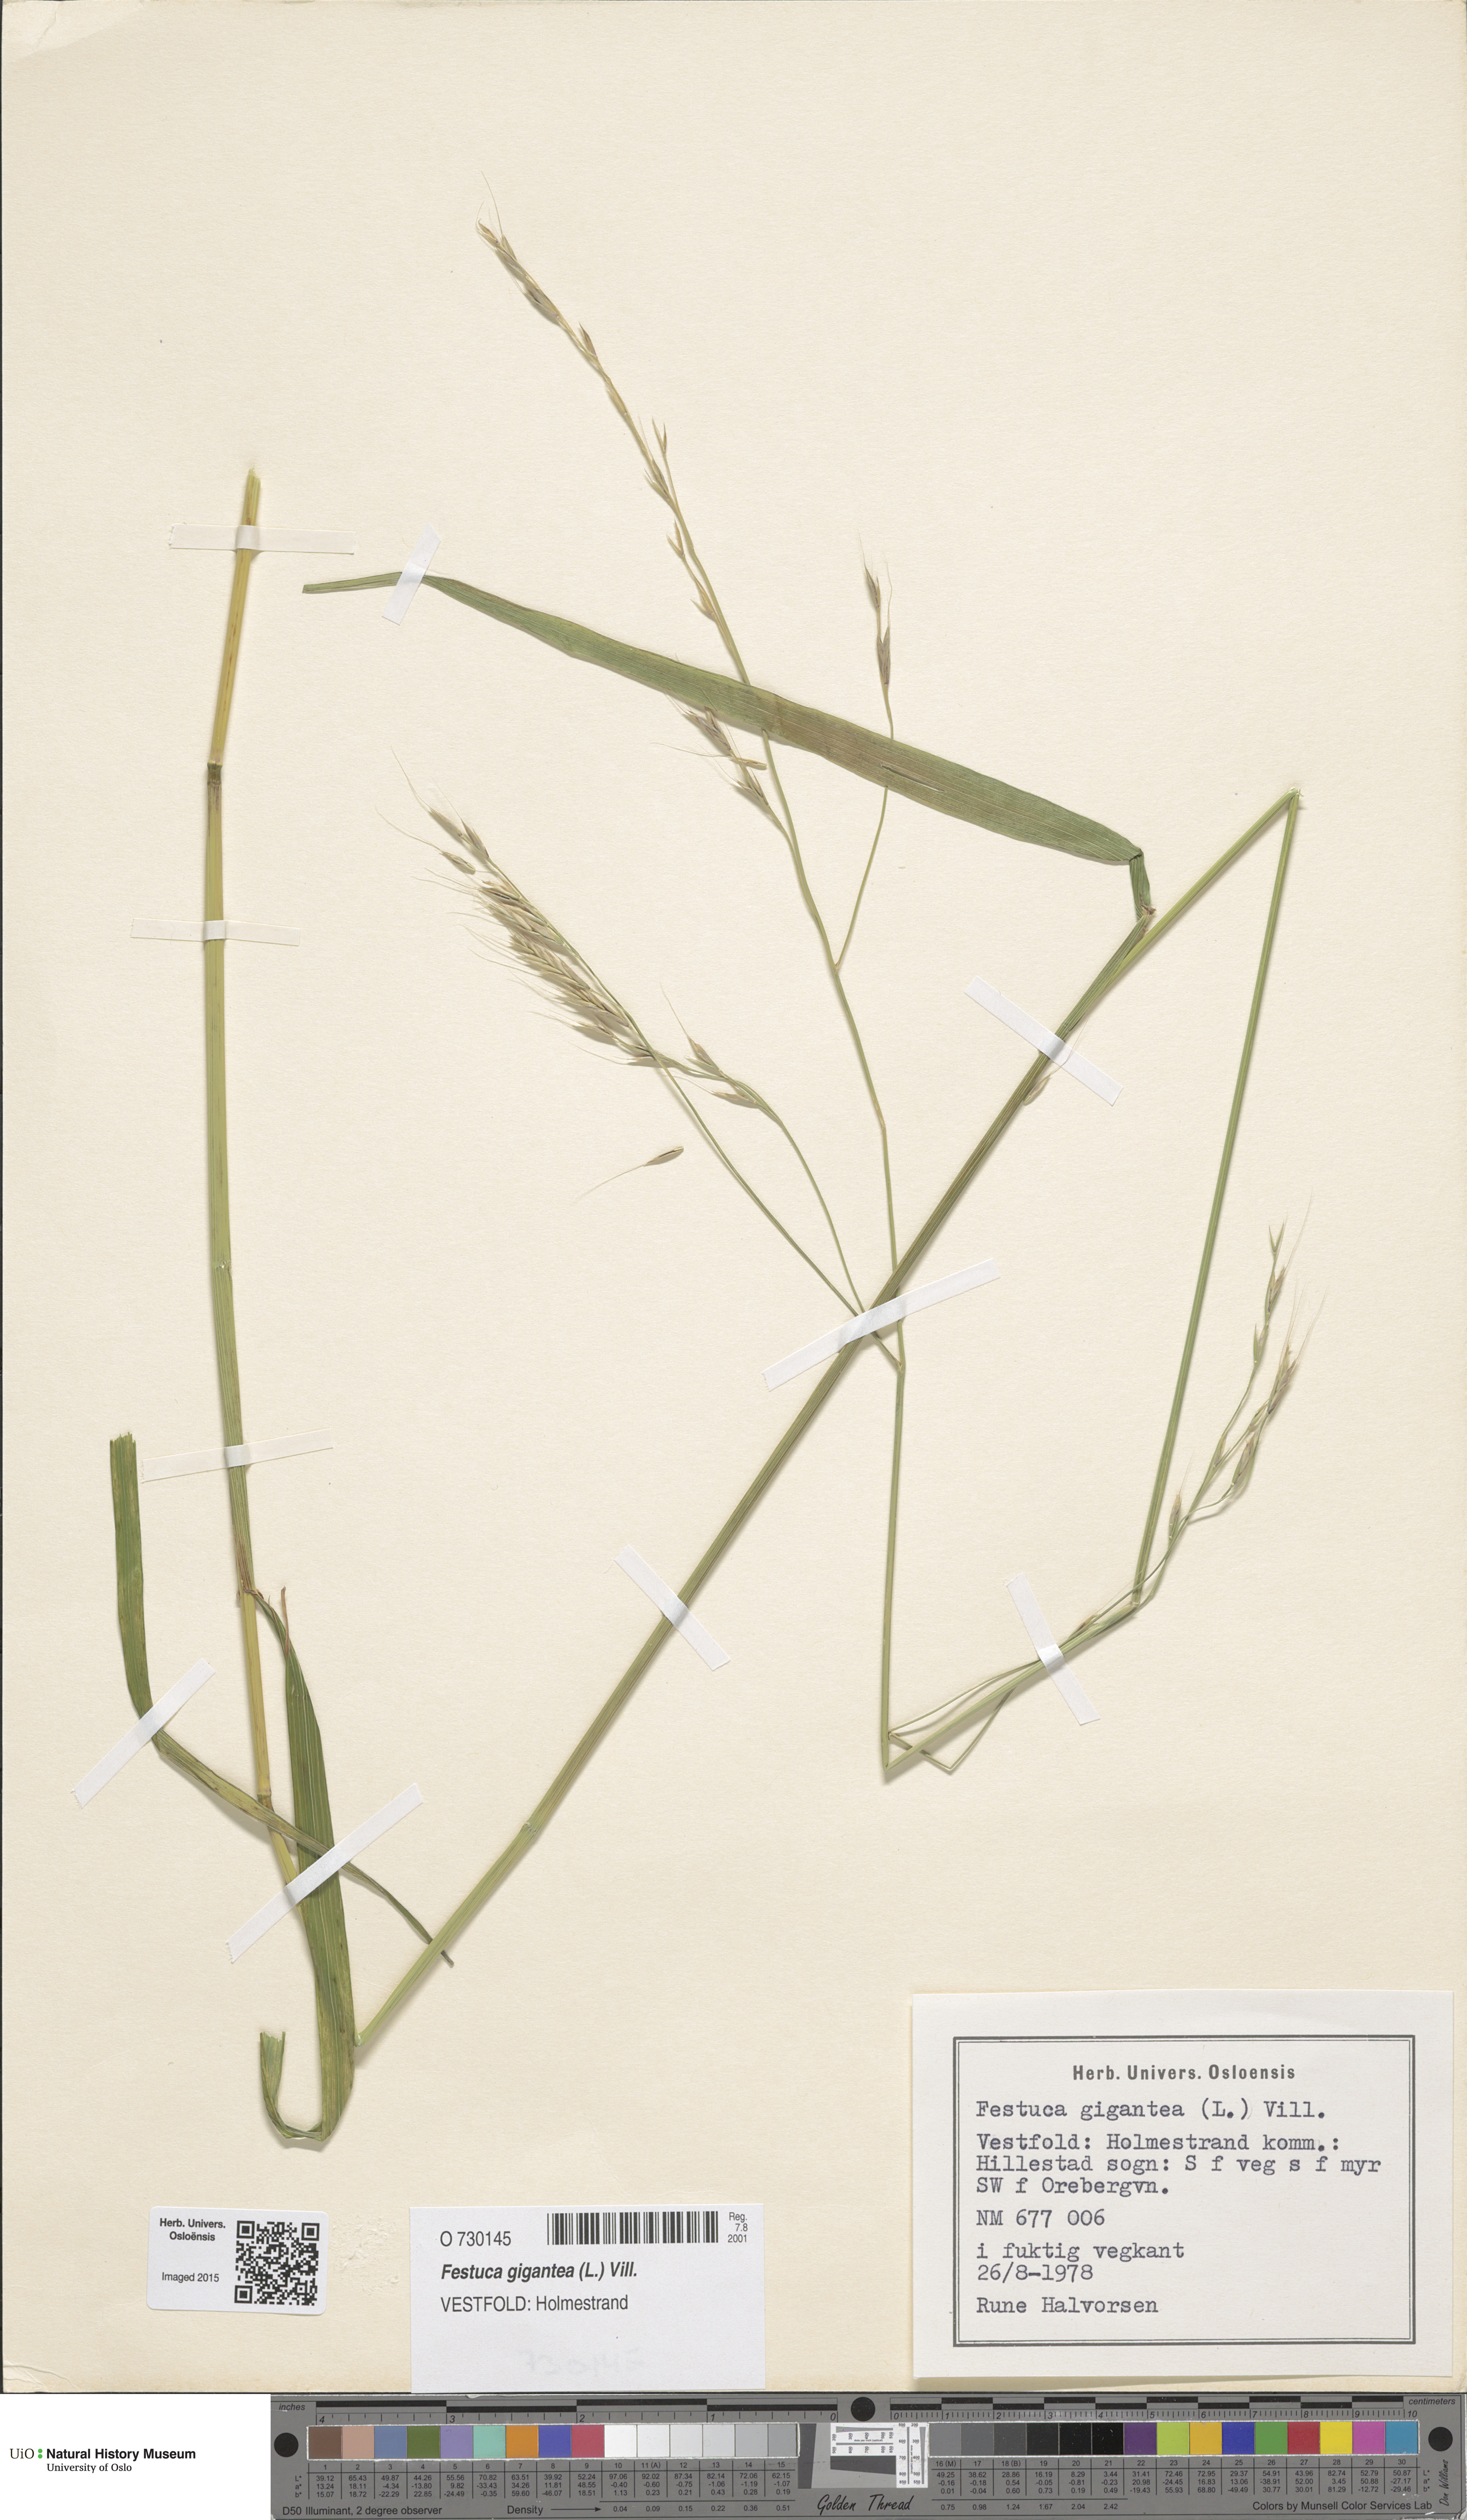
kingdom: Plantae
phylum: Tracheophyta
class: Liliopsida
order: Poales
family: Poaceae
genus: Lolium
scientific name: Lolium giganteum
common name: Giant fescue
